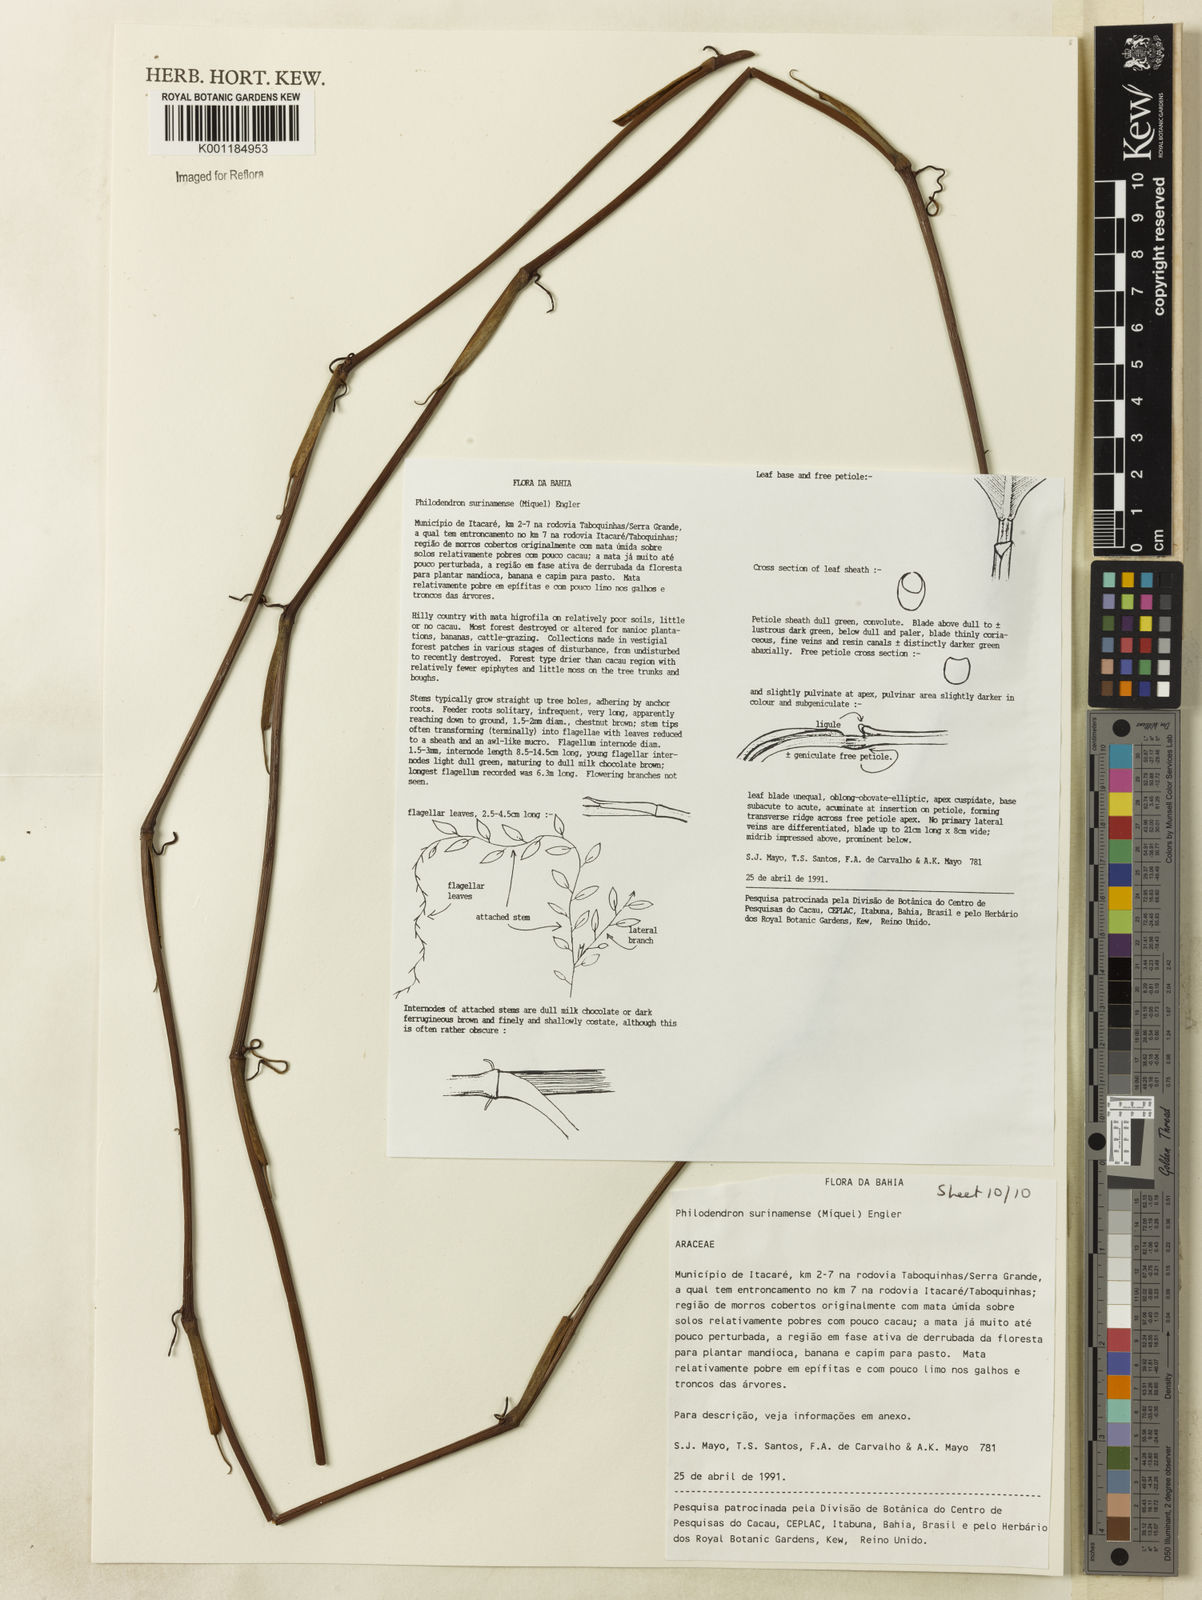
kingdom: Plantae
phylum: Tracheophyta
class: Liliopsida
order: Alismatales
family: Araceae
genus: Philodendron
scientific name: Philodendron surinamense
